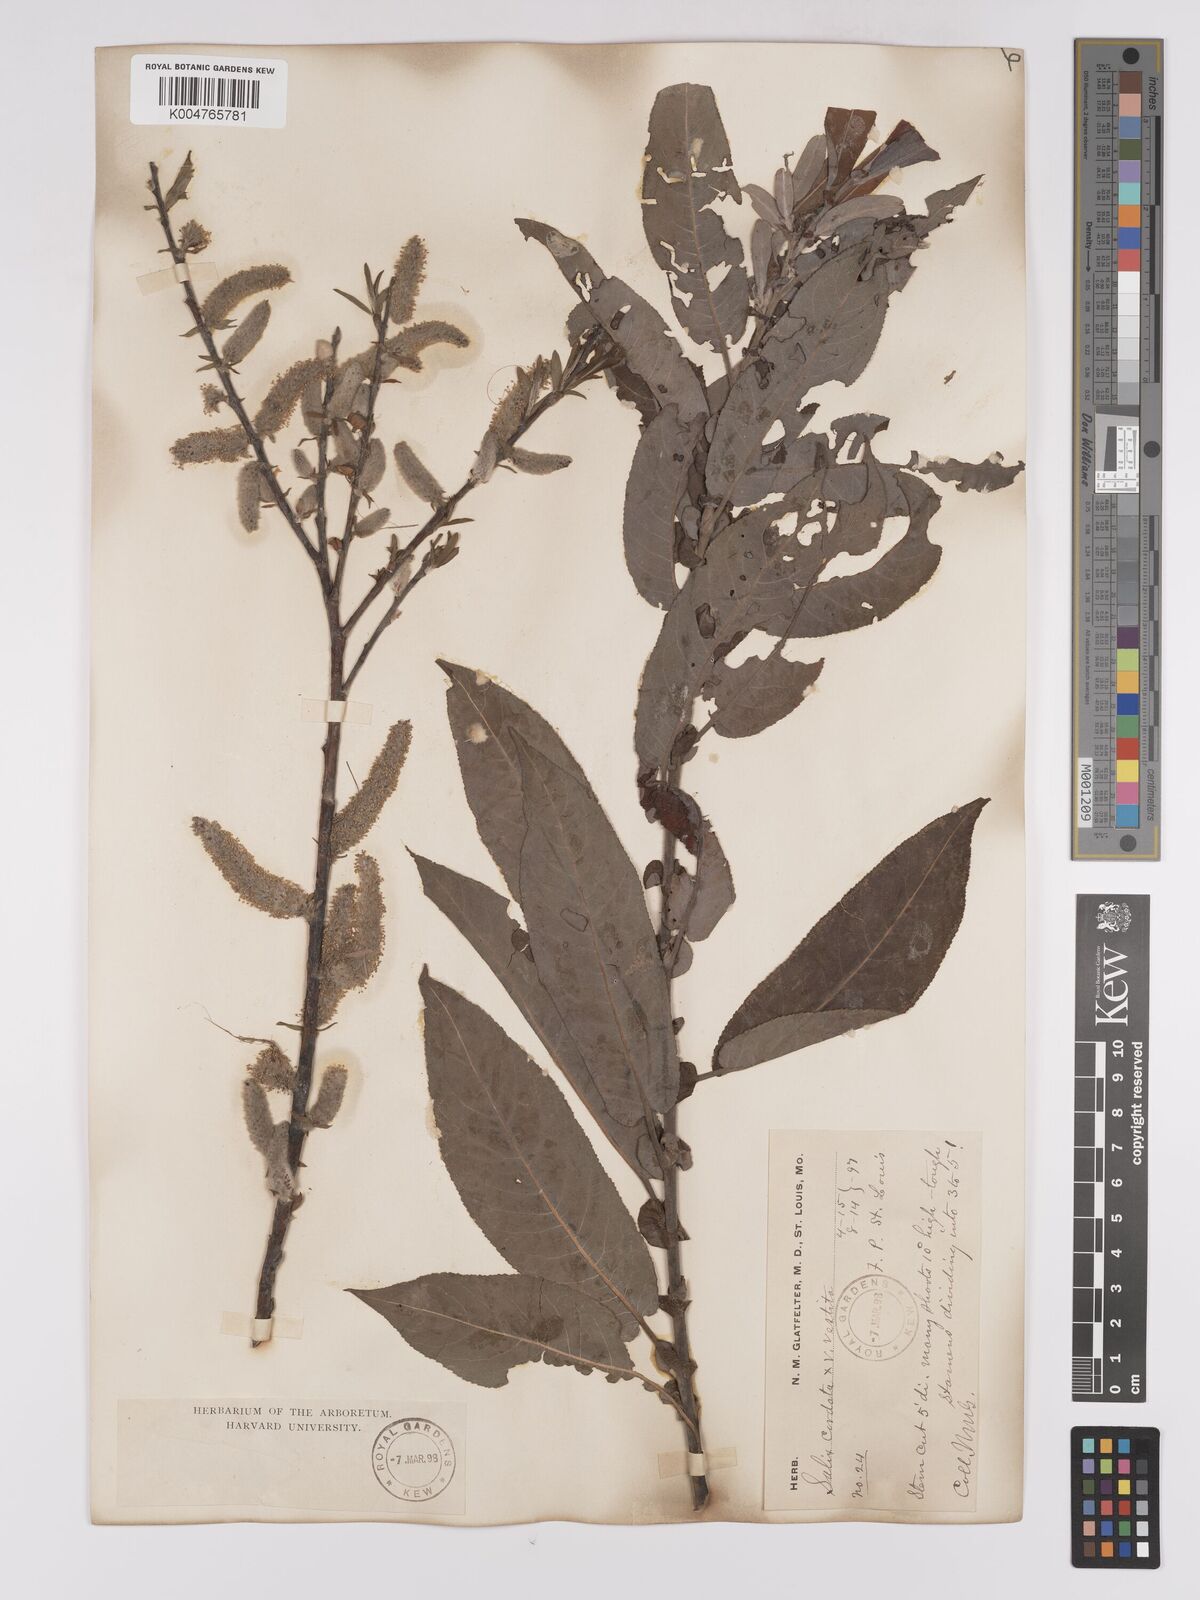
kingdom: Plantae
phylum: Tracheophyta
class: Magnoliopsida
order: Malpighiales
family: Salicaceae
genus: Salix
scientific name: Salix cordata
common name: Heart-leaf willow
